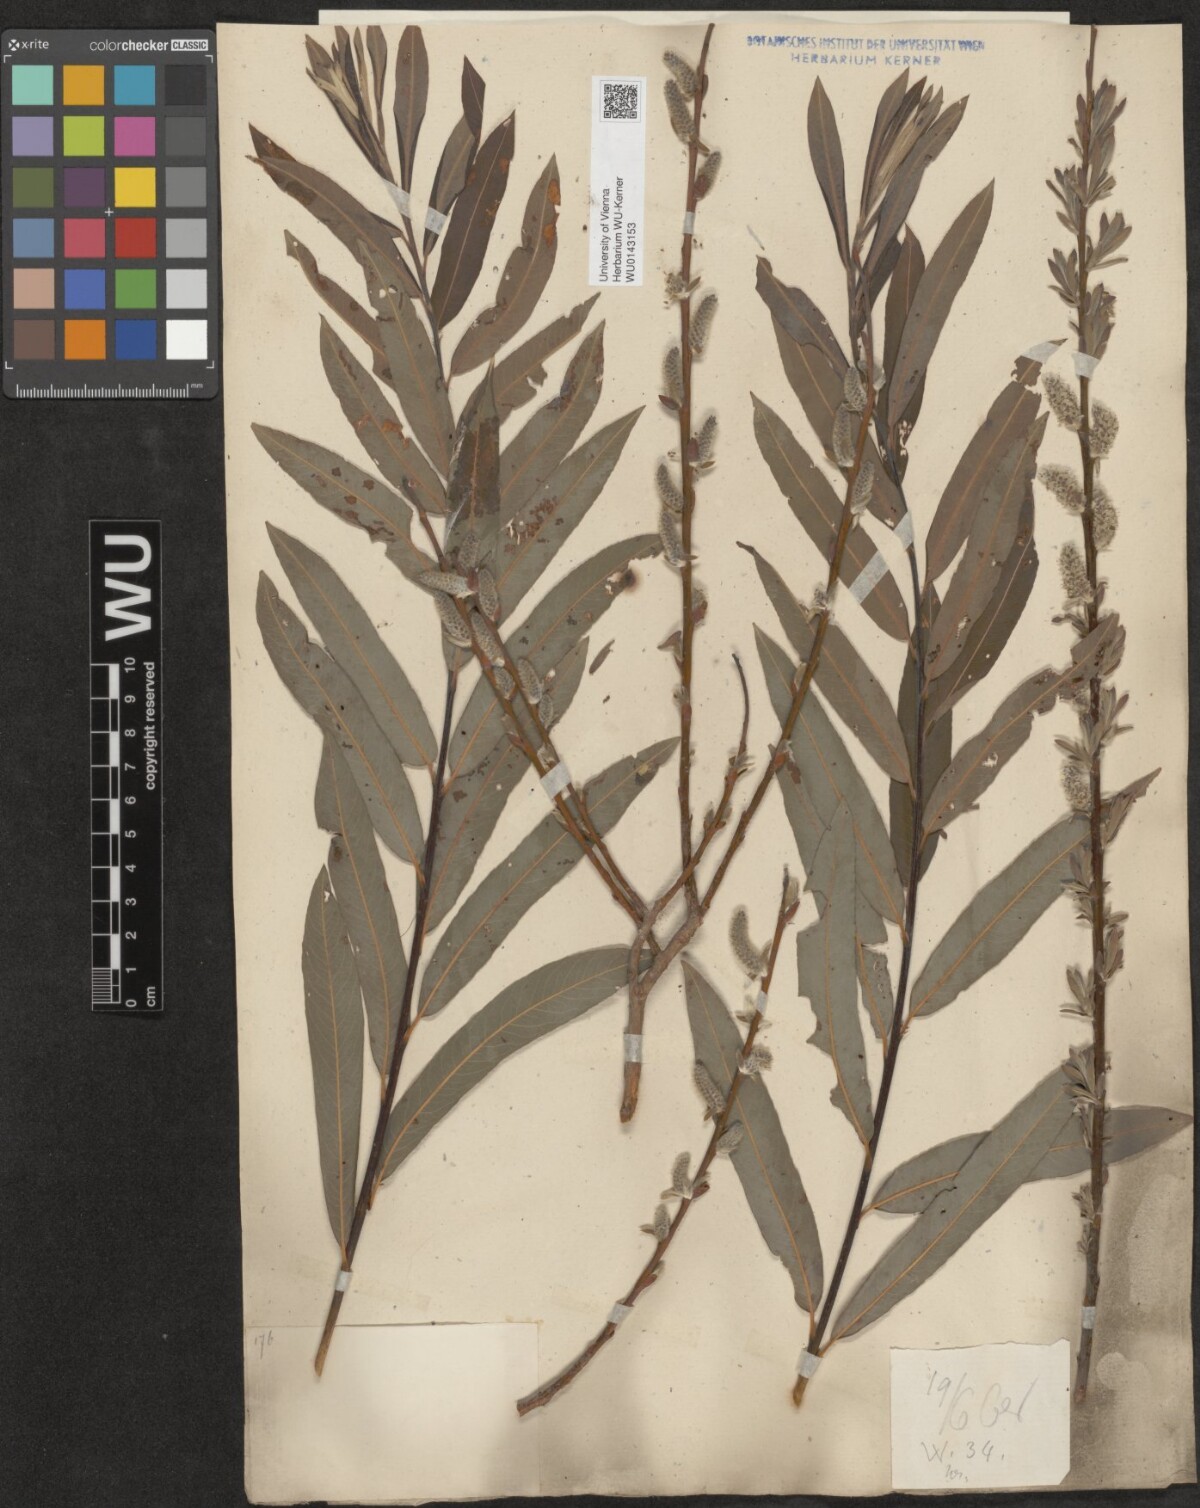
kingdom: Plantae
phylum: Tracheophyta
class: Magnoliopsida
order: Malpighiales
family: Salicaceae
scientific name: Salicaceae
